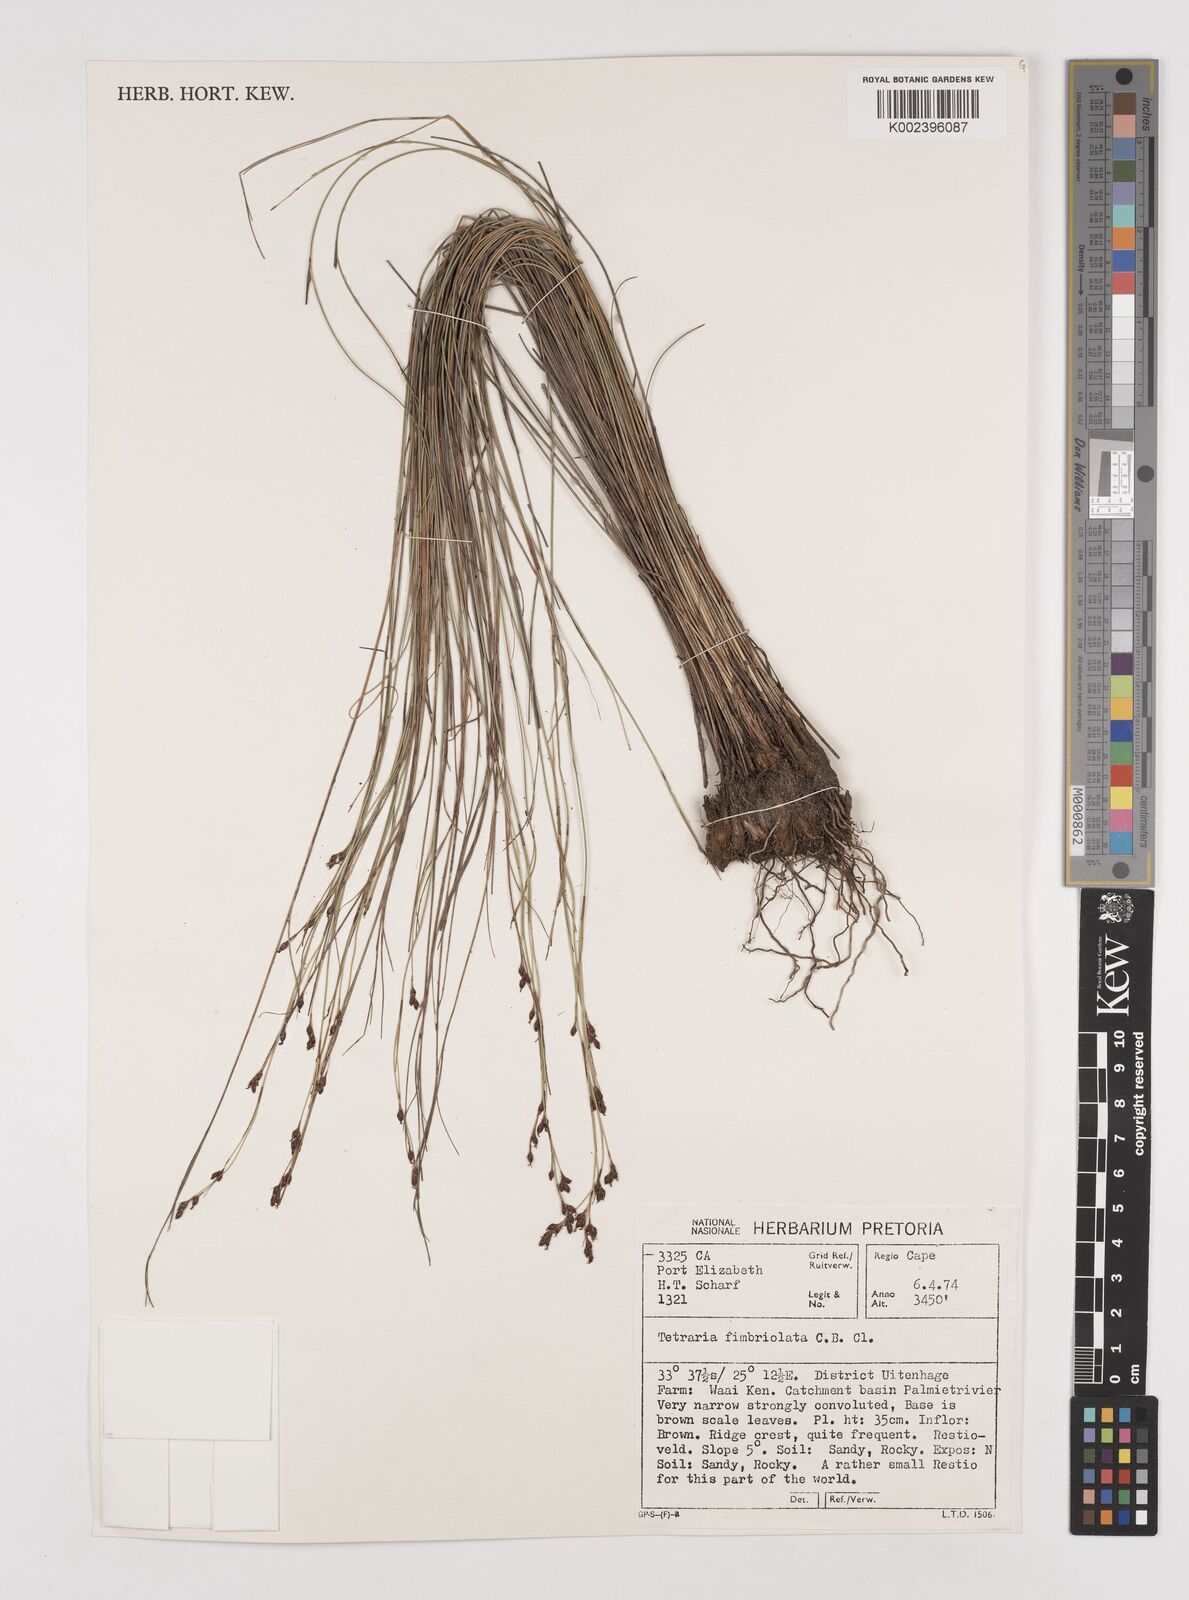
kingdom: Plantae
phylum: Tracheophyta
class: Liliopsida
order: Poales
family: Cyperaceae
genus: Tetraria
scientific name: Tetraria fimbriolata
